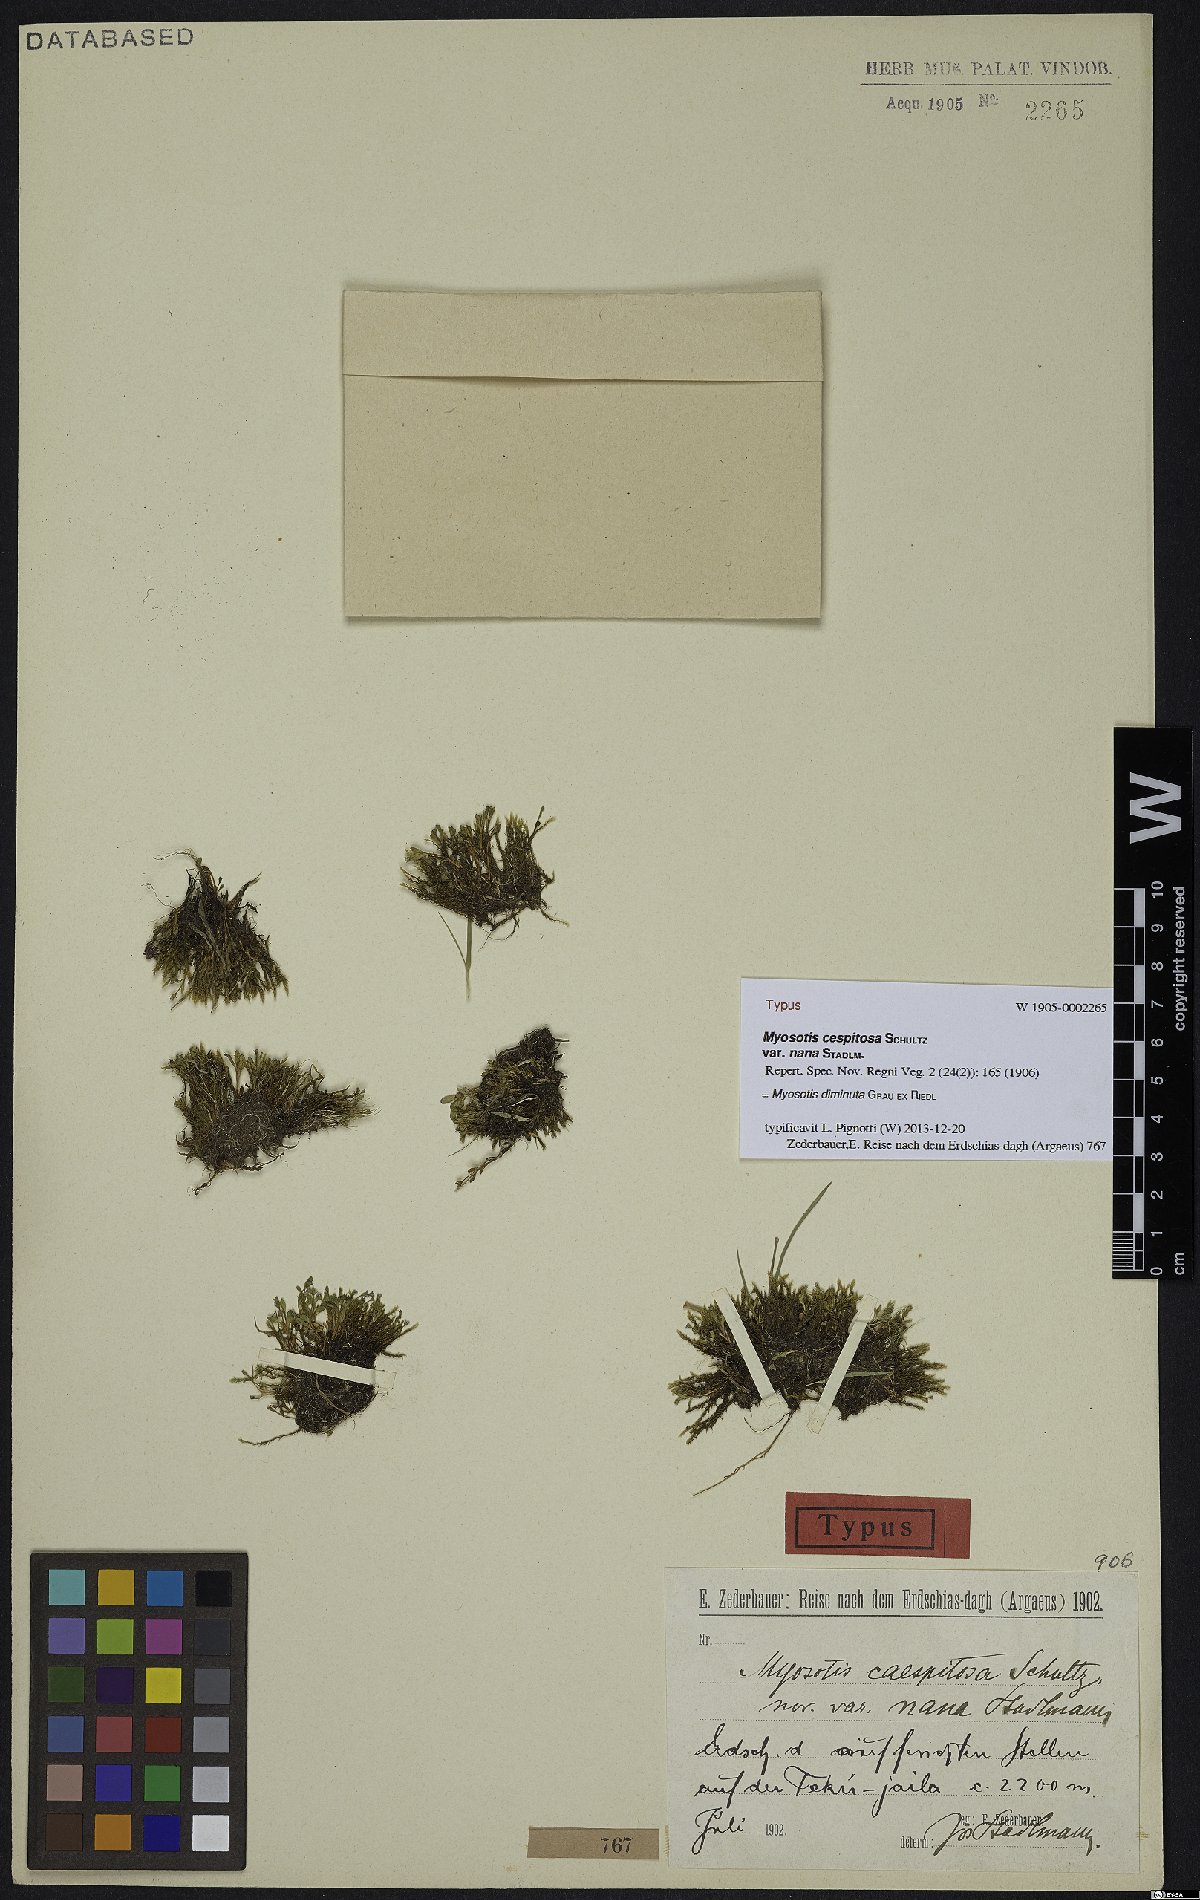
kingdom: Plantae
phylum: Tracheophyta
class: Magnoliopsida
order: Boraginales
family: Boraginaceae
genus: Myosotis
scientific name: Myosotis diminuta
